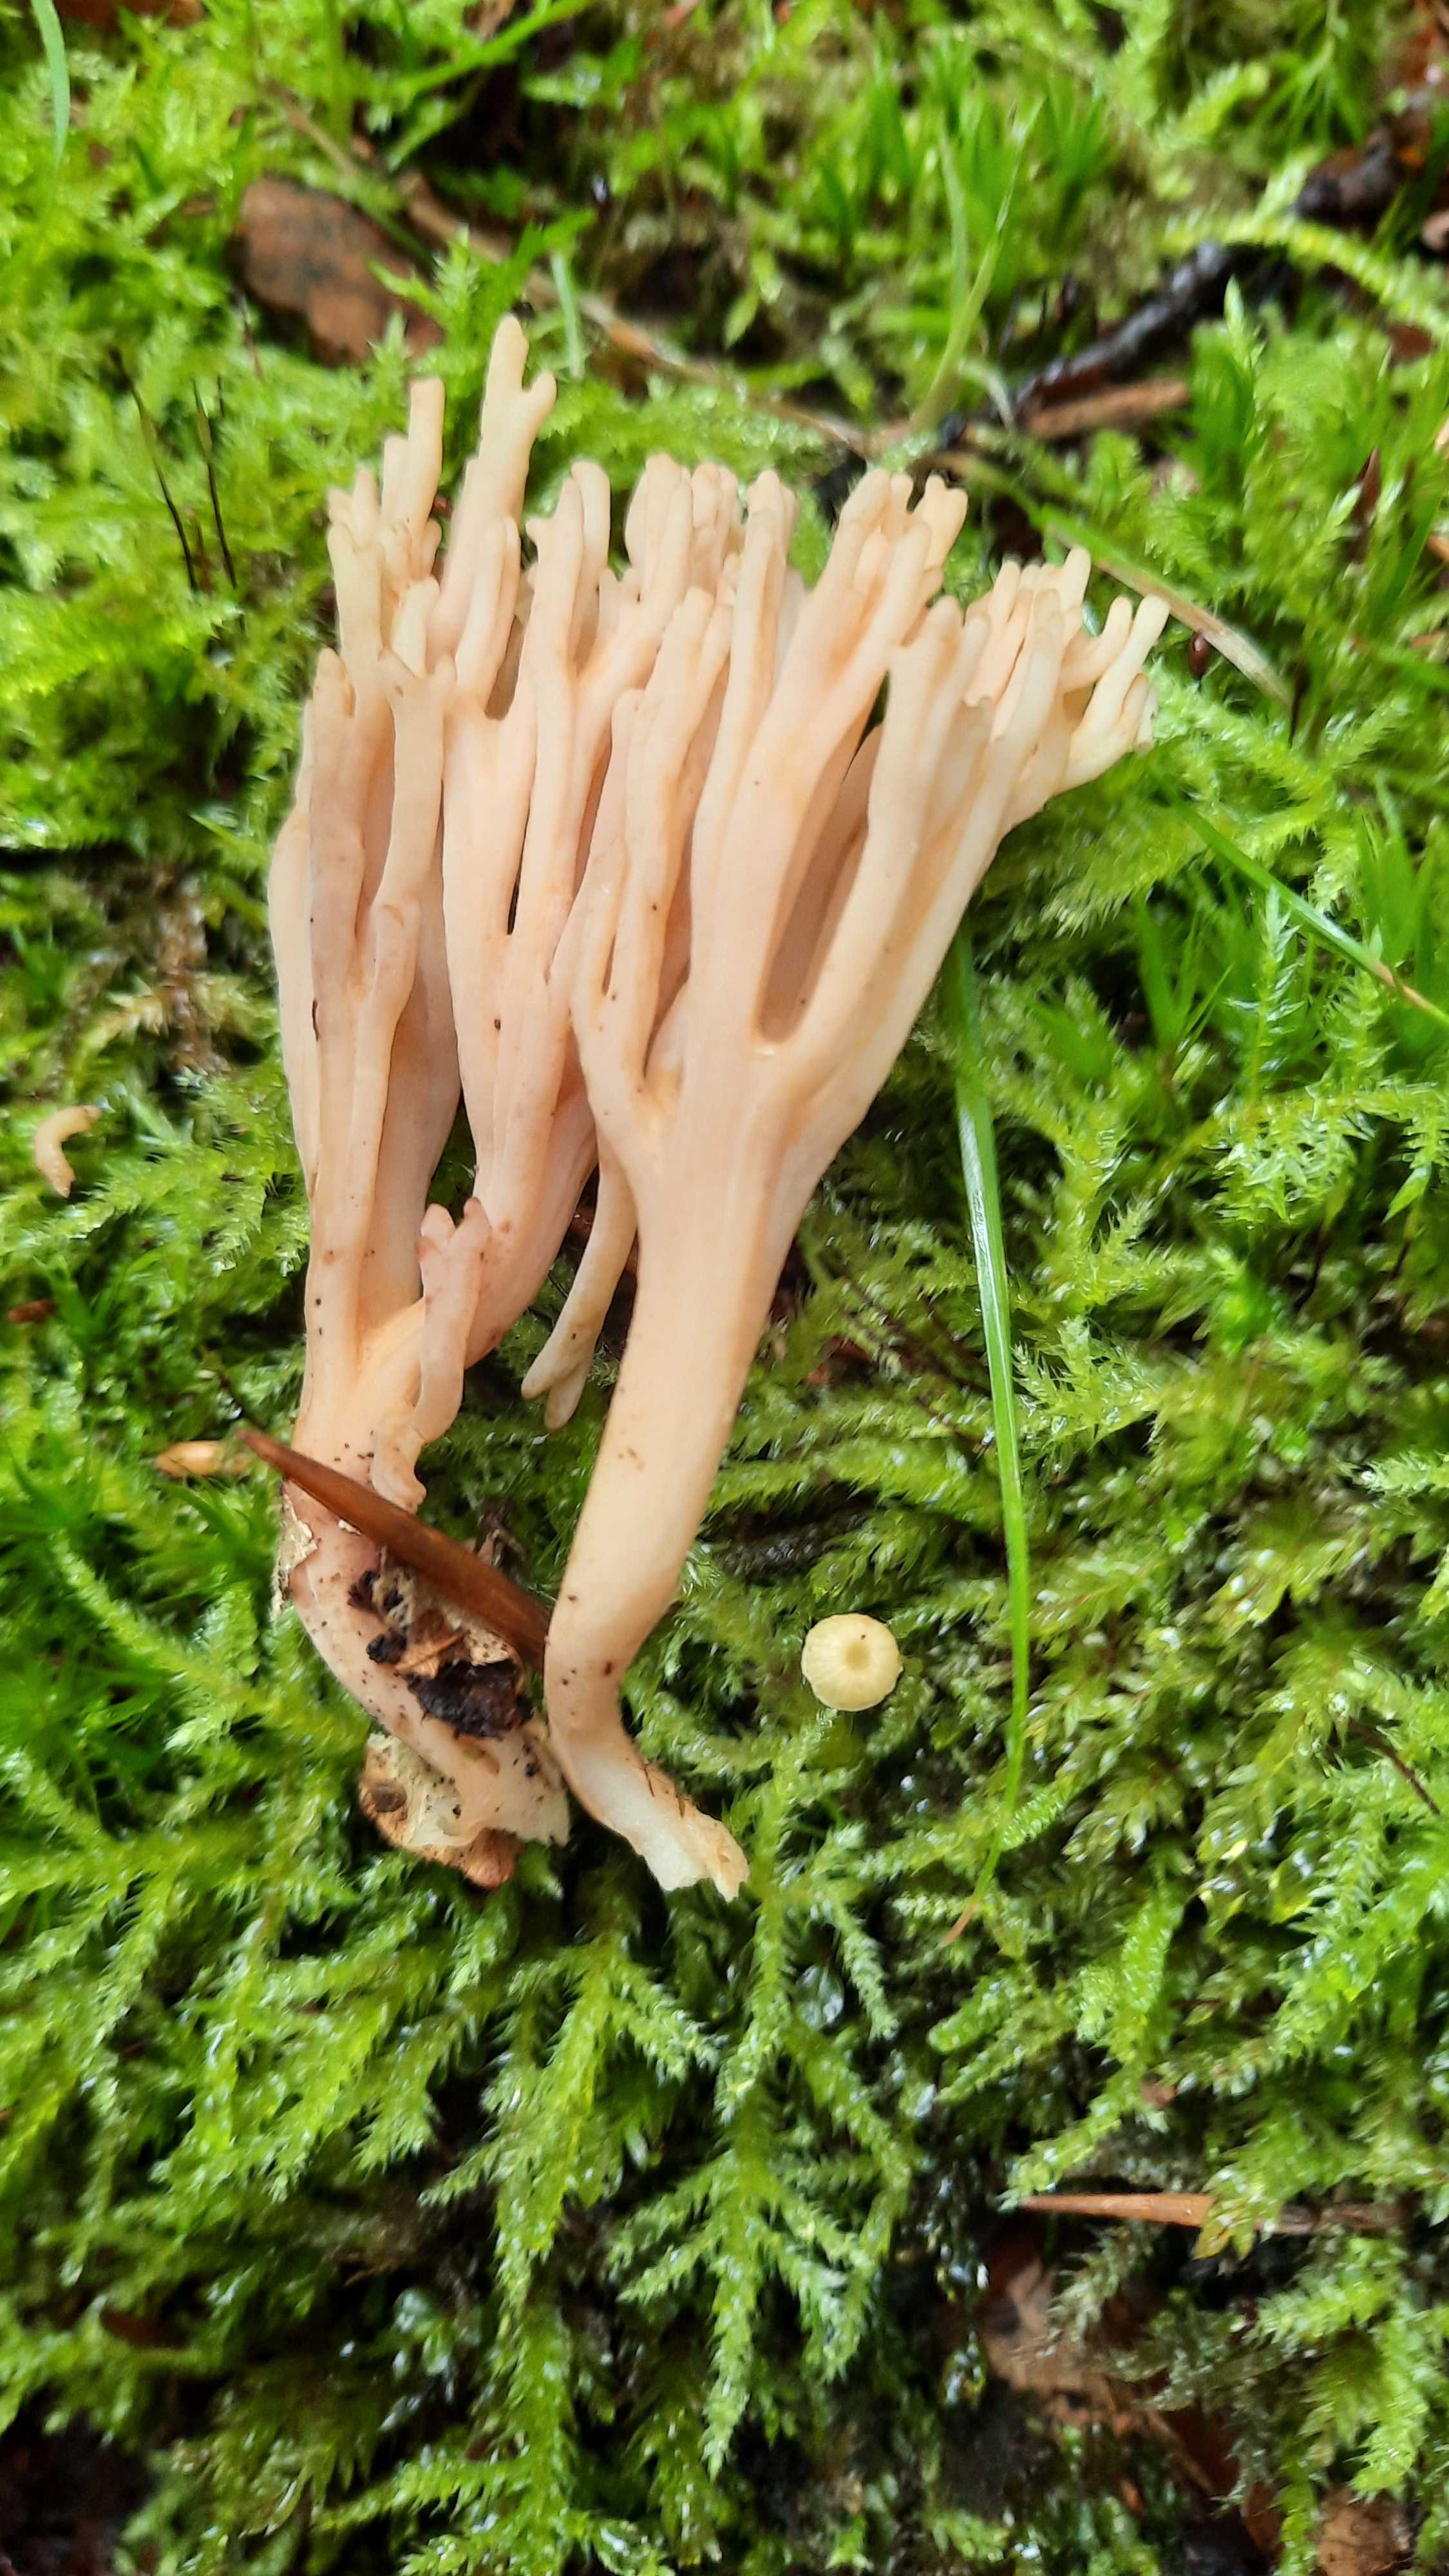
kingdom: Fungi
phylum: Basidiomycota
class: Agaricomycetes
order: Gomphales
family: Gomphaceae
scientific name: Gomphaceae
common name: køllekantarelfamilien
